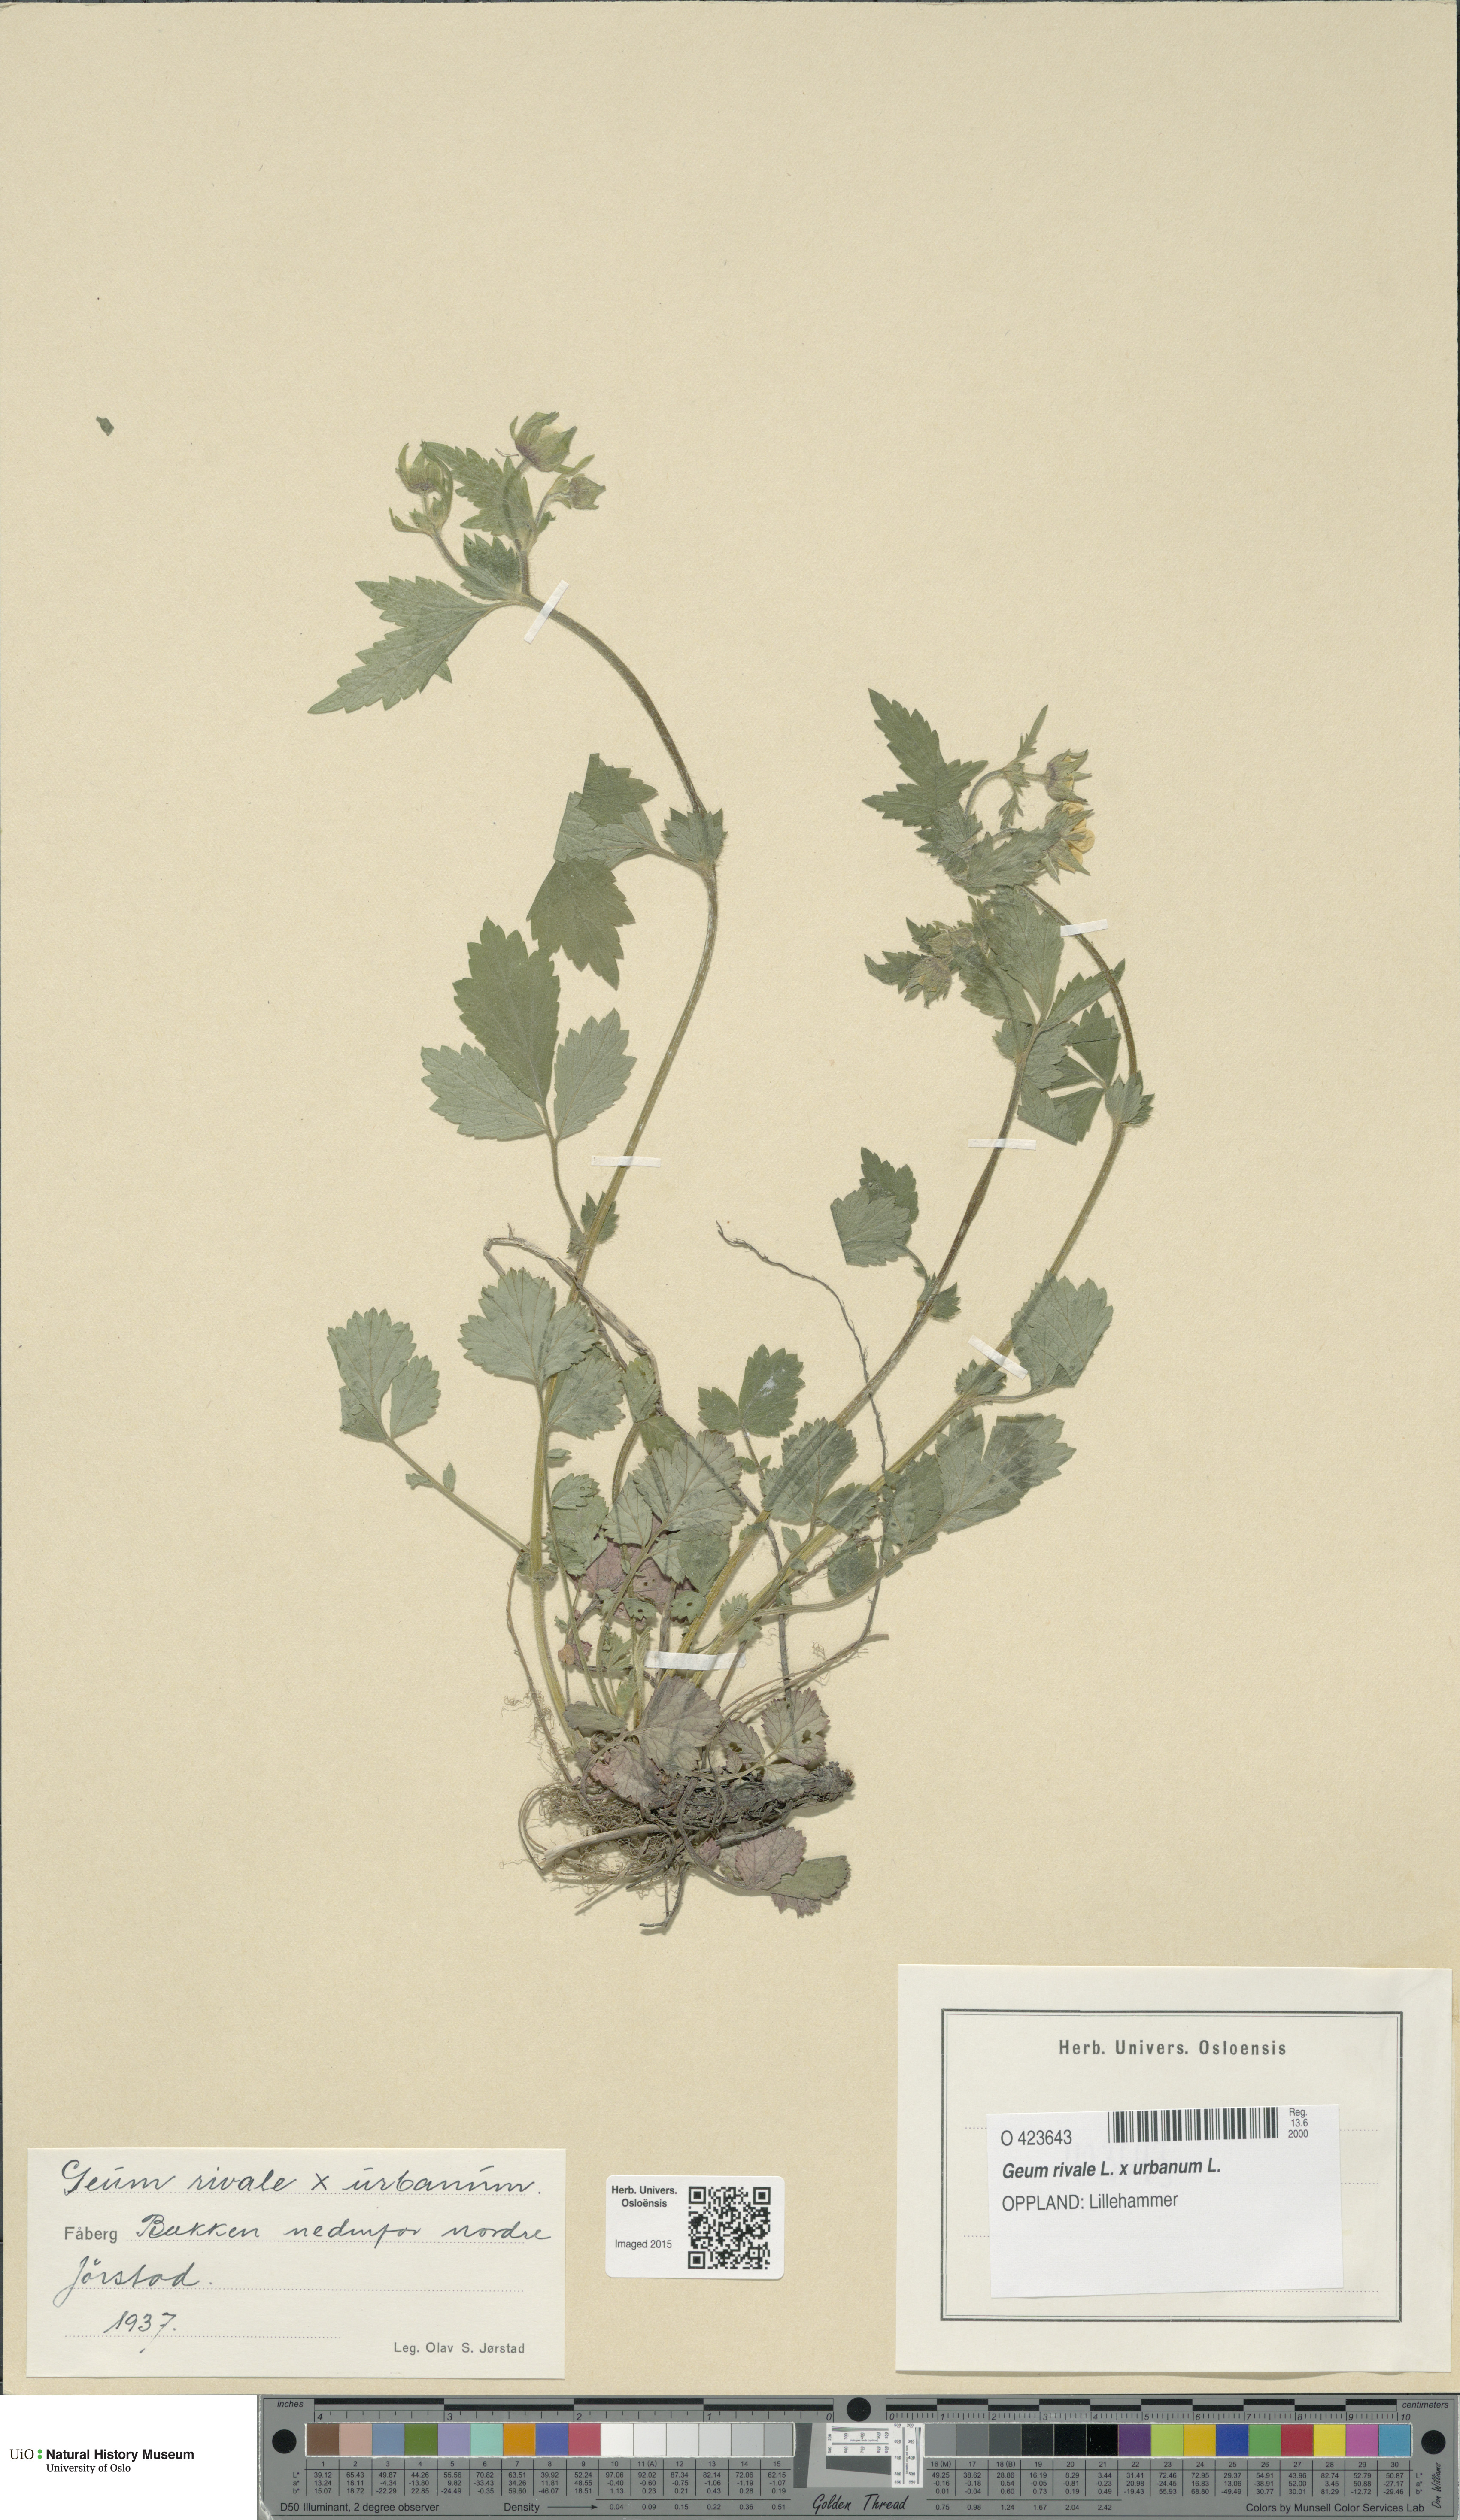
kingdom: Plantae
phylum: Tracheophyta
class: Magnoliopsida
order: Rosales
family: Rosaceae
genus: Geum
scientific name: Geum
